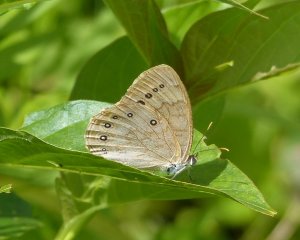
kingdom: Animalia
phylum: Arthropoda
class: Insecta
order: Lepidoptera
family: Nymphalidae
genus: Lethe
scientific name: Lethe eurydice
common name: Eyed Brown
